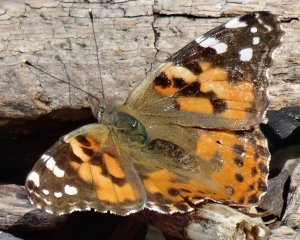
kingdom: Animalia
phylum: Arthropoda
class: Insecta
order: Lepidoptera
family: Nymphalidae
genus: Vanessa
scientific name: Vanessa cardui
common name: Painted Lady
